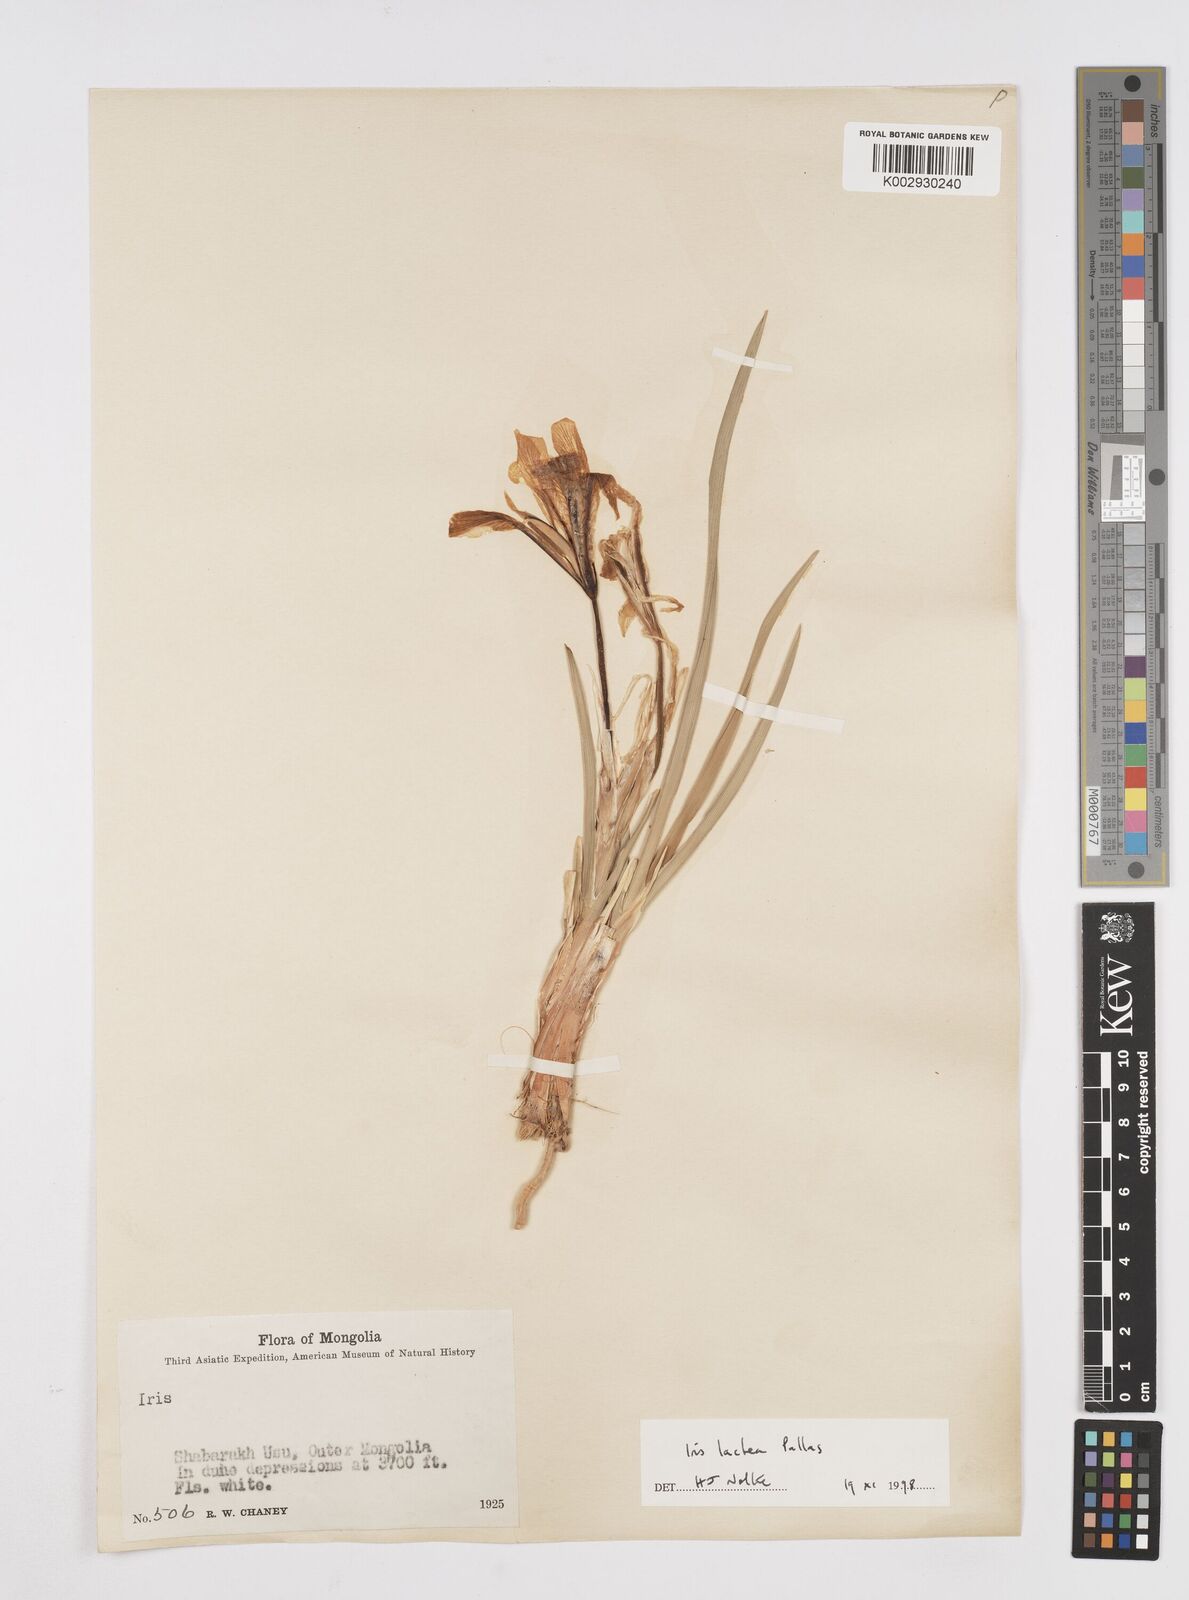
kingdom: Plantae
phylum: Tracheophyta
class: Liliopsida
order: Asparagales
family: Iridaceae
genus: Iris
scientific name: Iris lactea
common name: White-flower chinese iris
